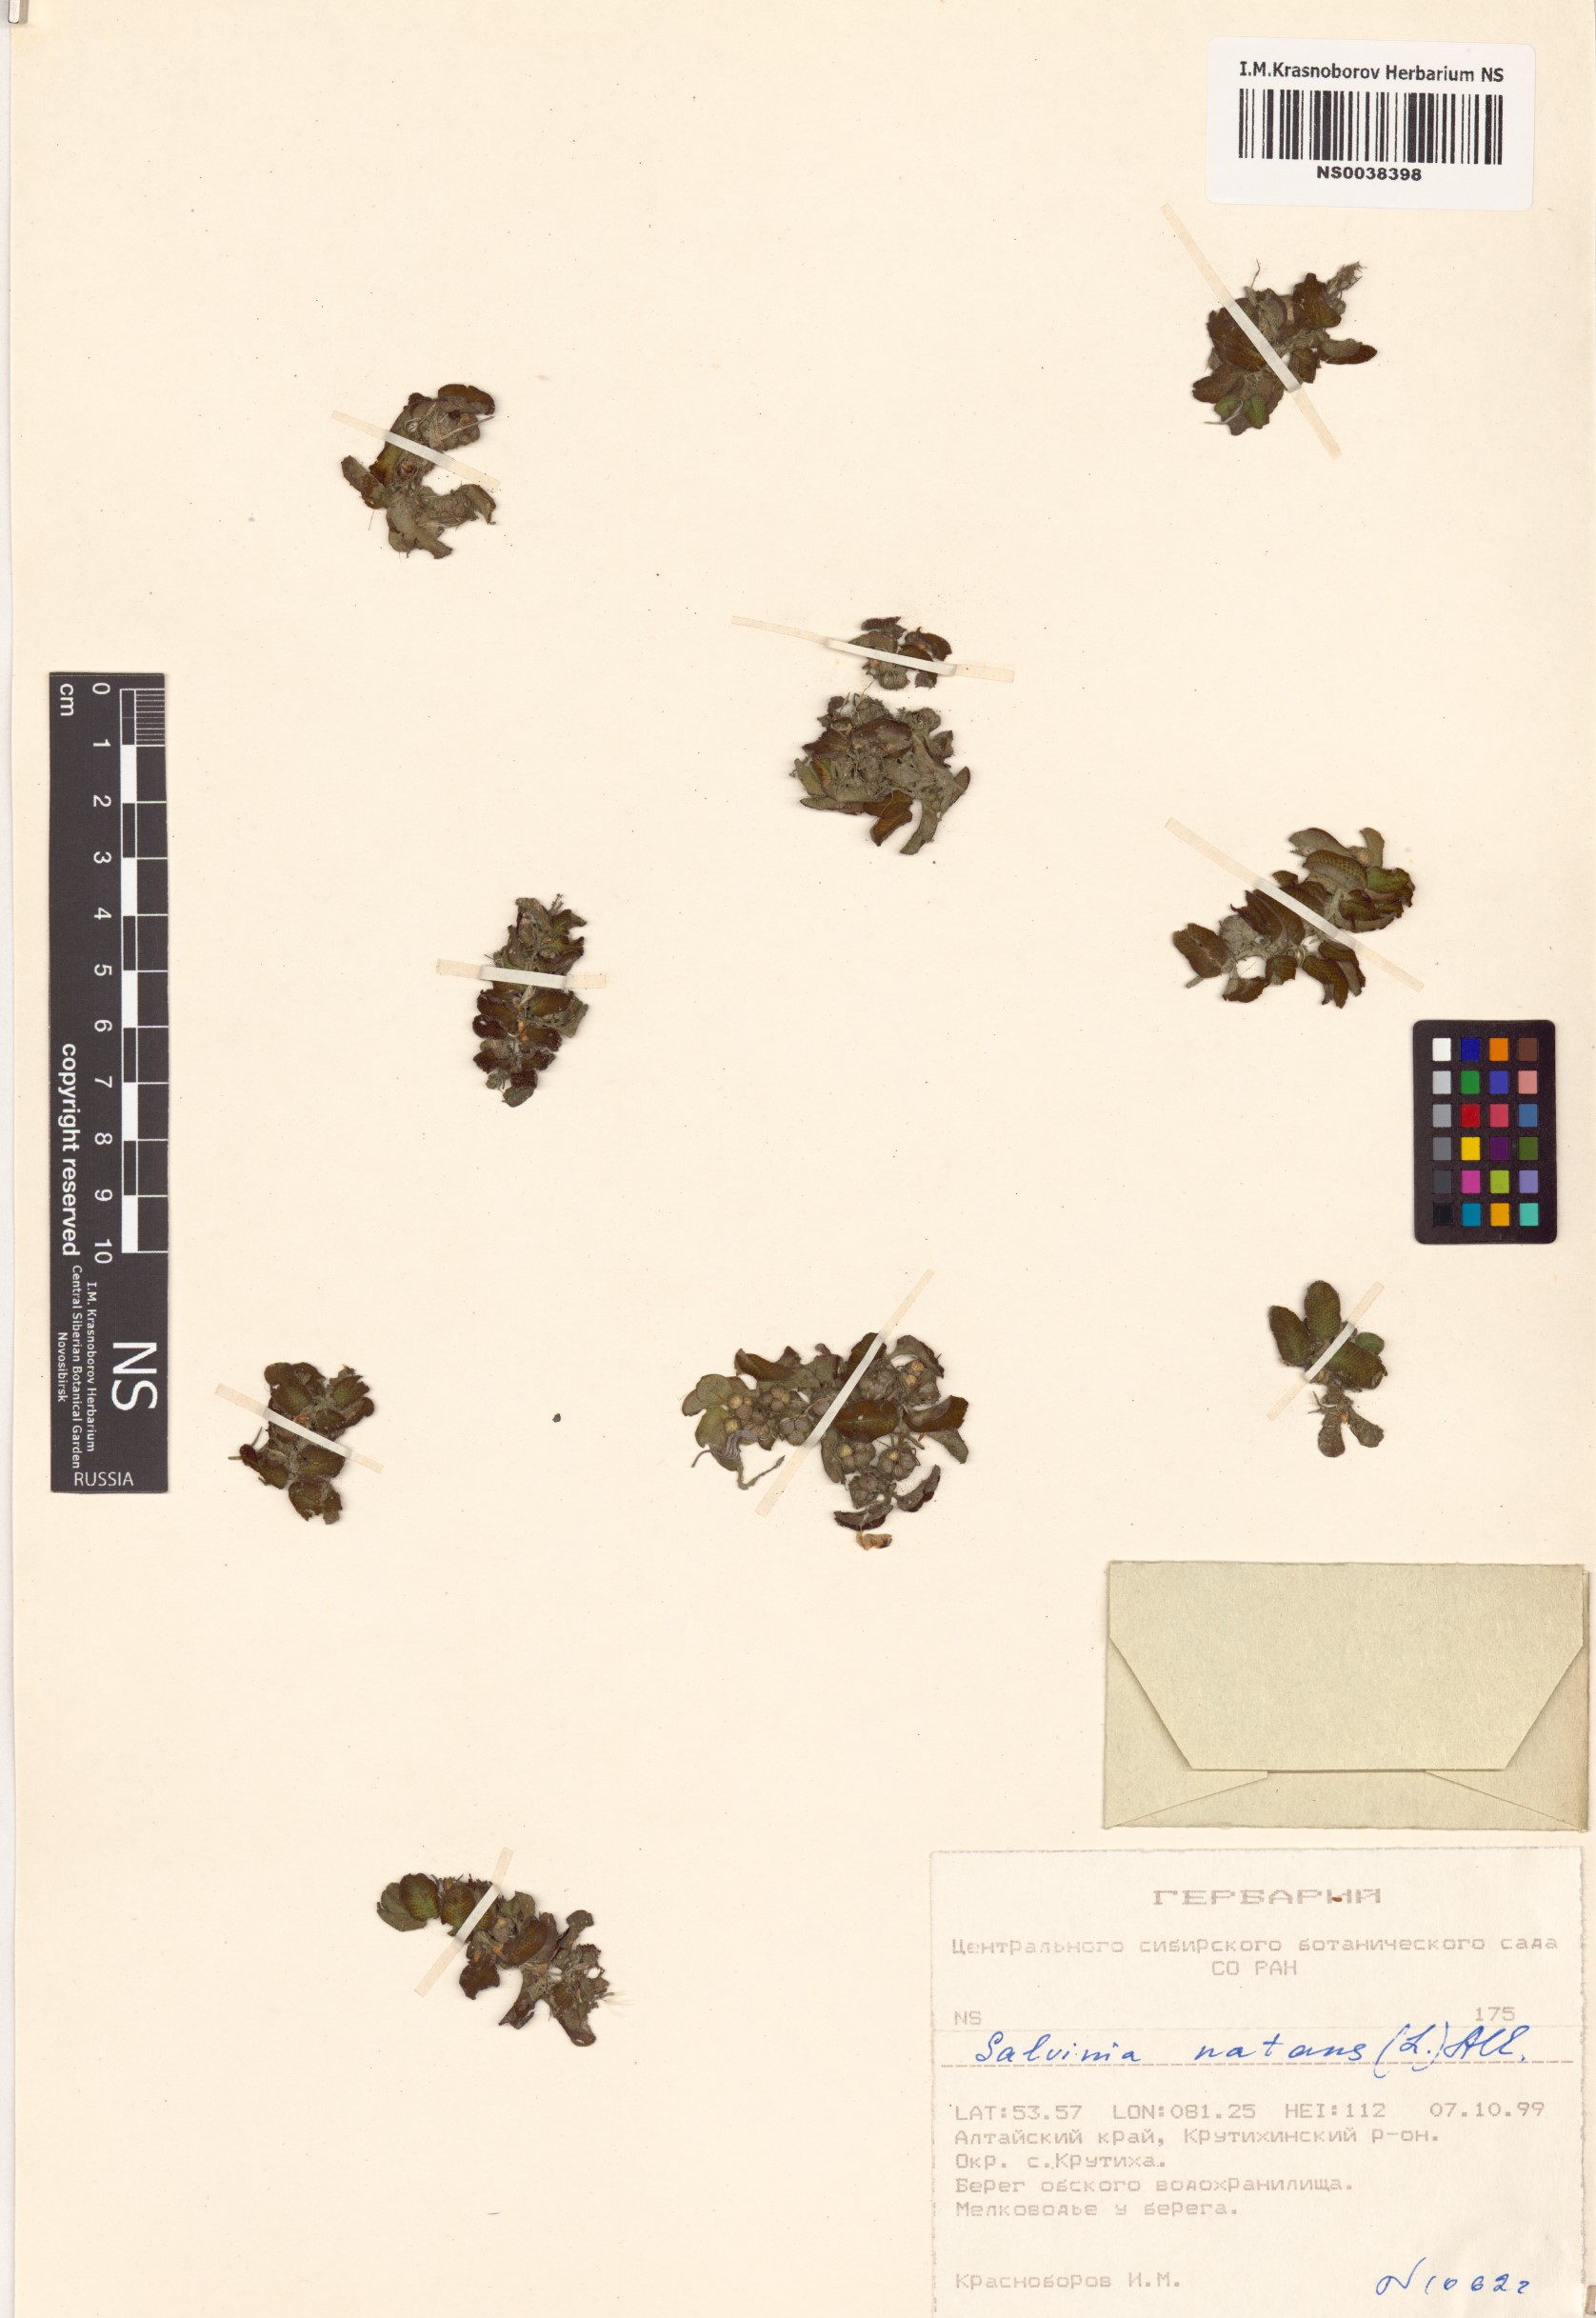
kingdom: Plantae
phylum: Tracheophyta
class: Polypodiopsida
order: Salviniales
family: Salviniaceae
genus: Salvinia
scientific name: Salvinia natans
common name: Floating fern
